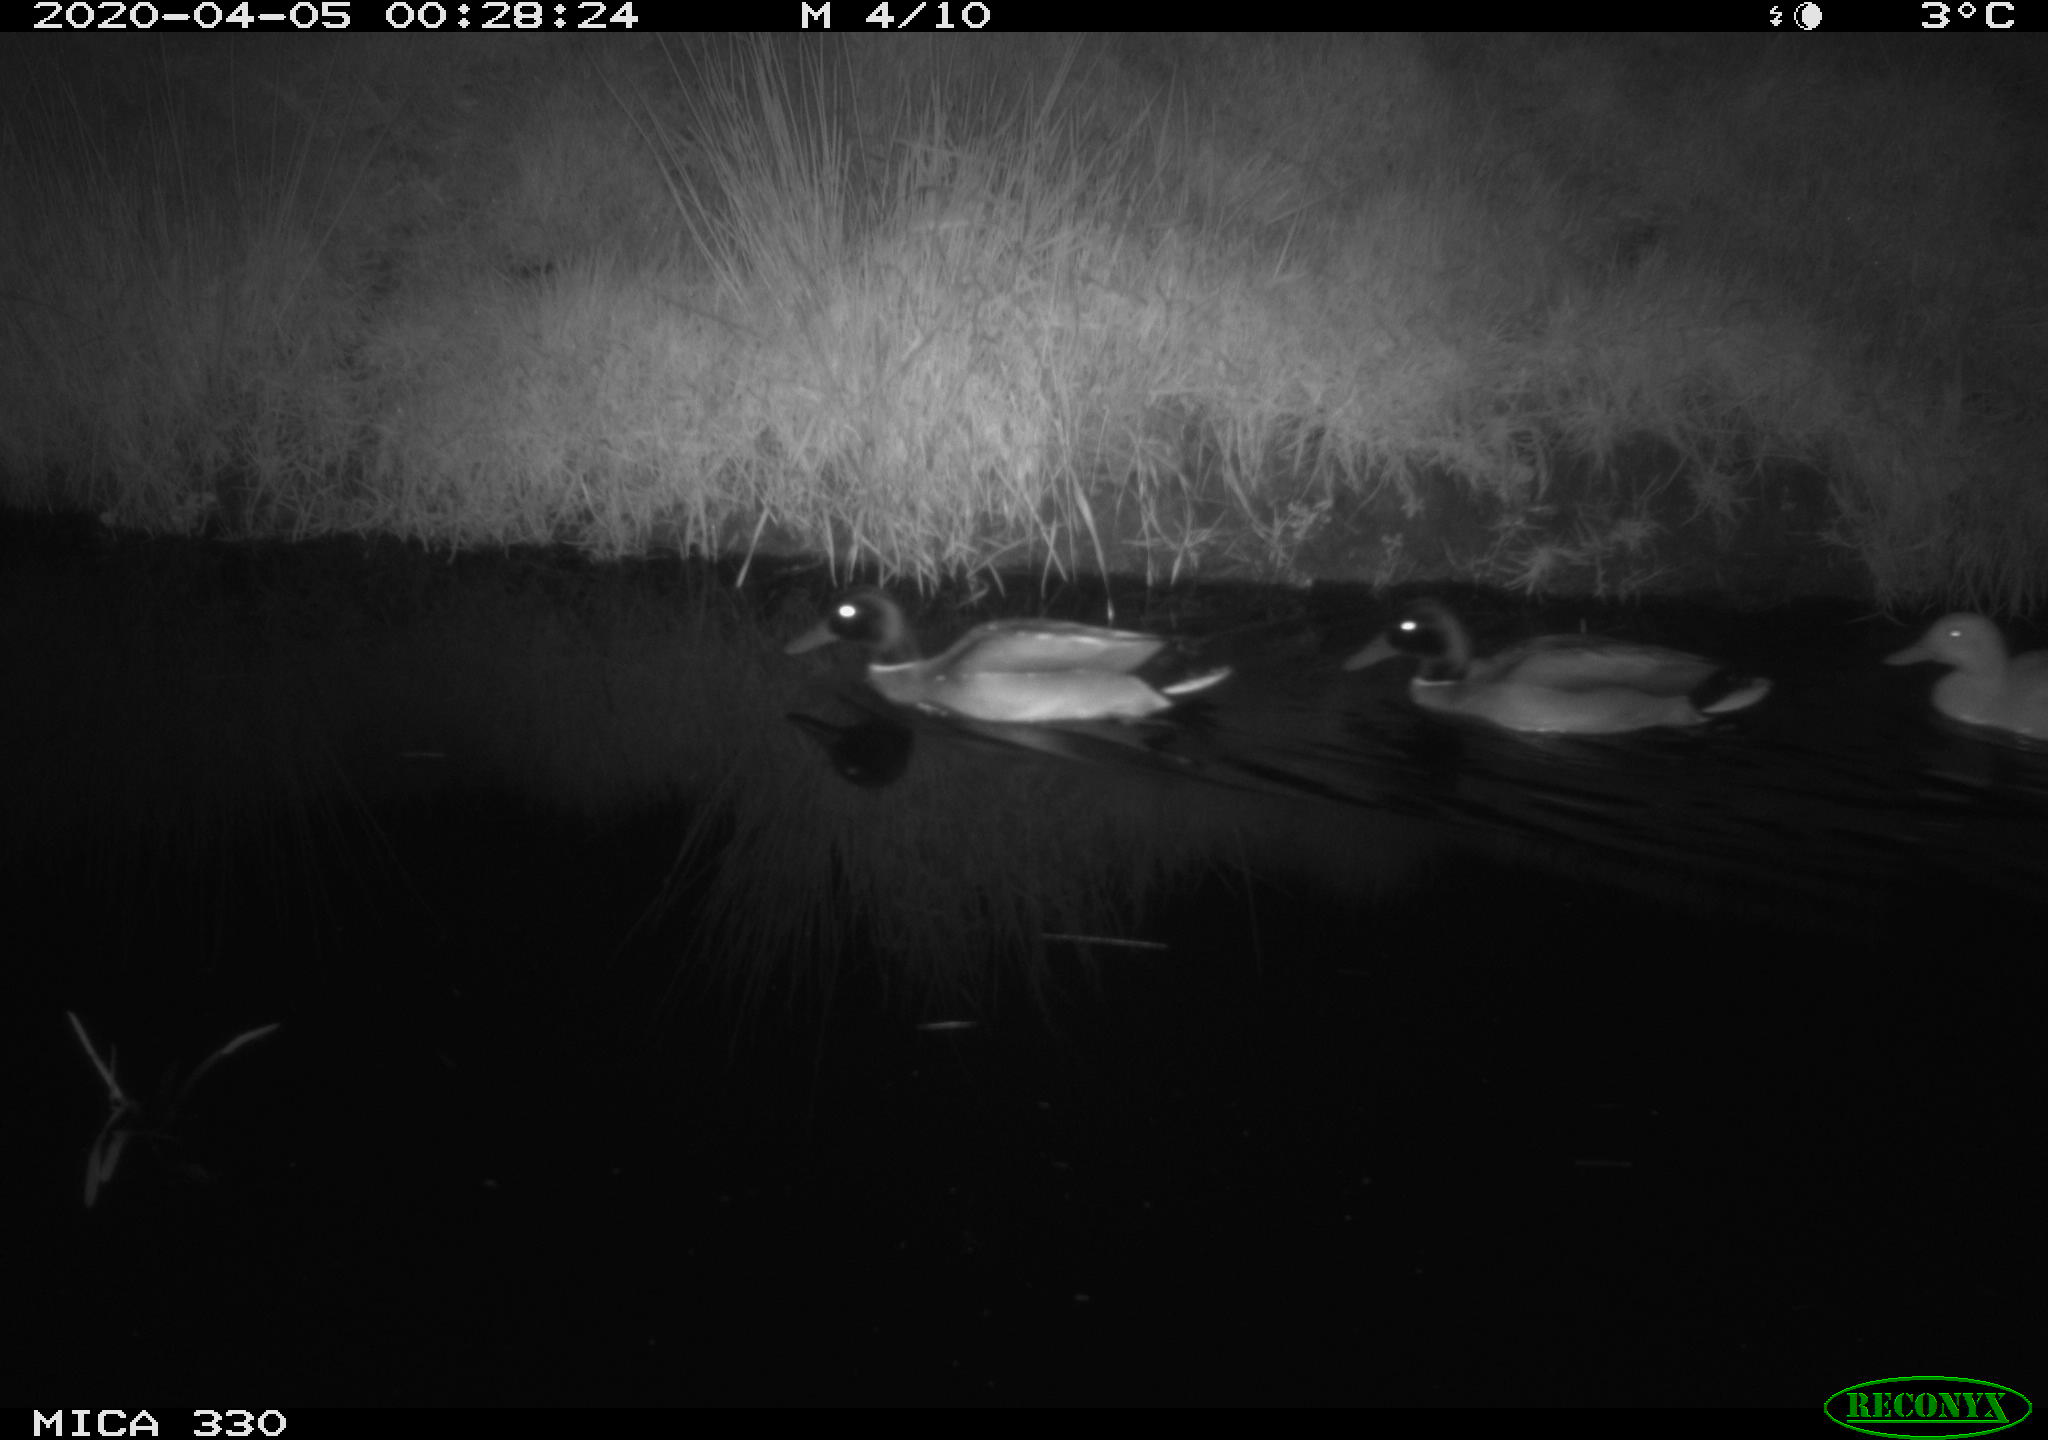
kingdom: Animalia
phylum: Chordata
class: Aves
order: Anseriformes
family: Anatidae
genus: Anas
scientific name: Anas platyrhynchos
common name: Mallard
